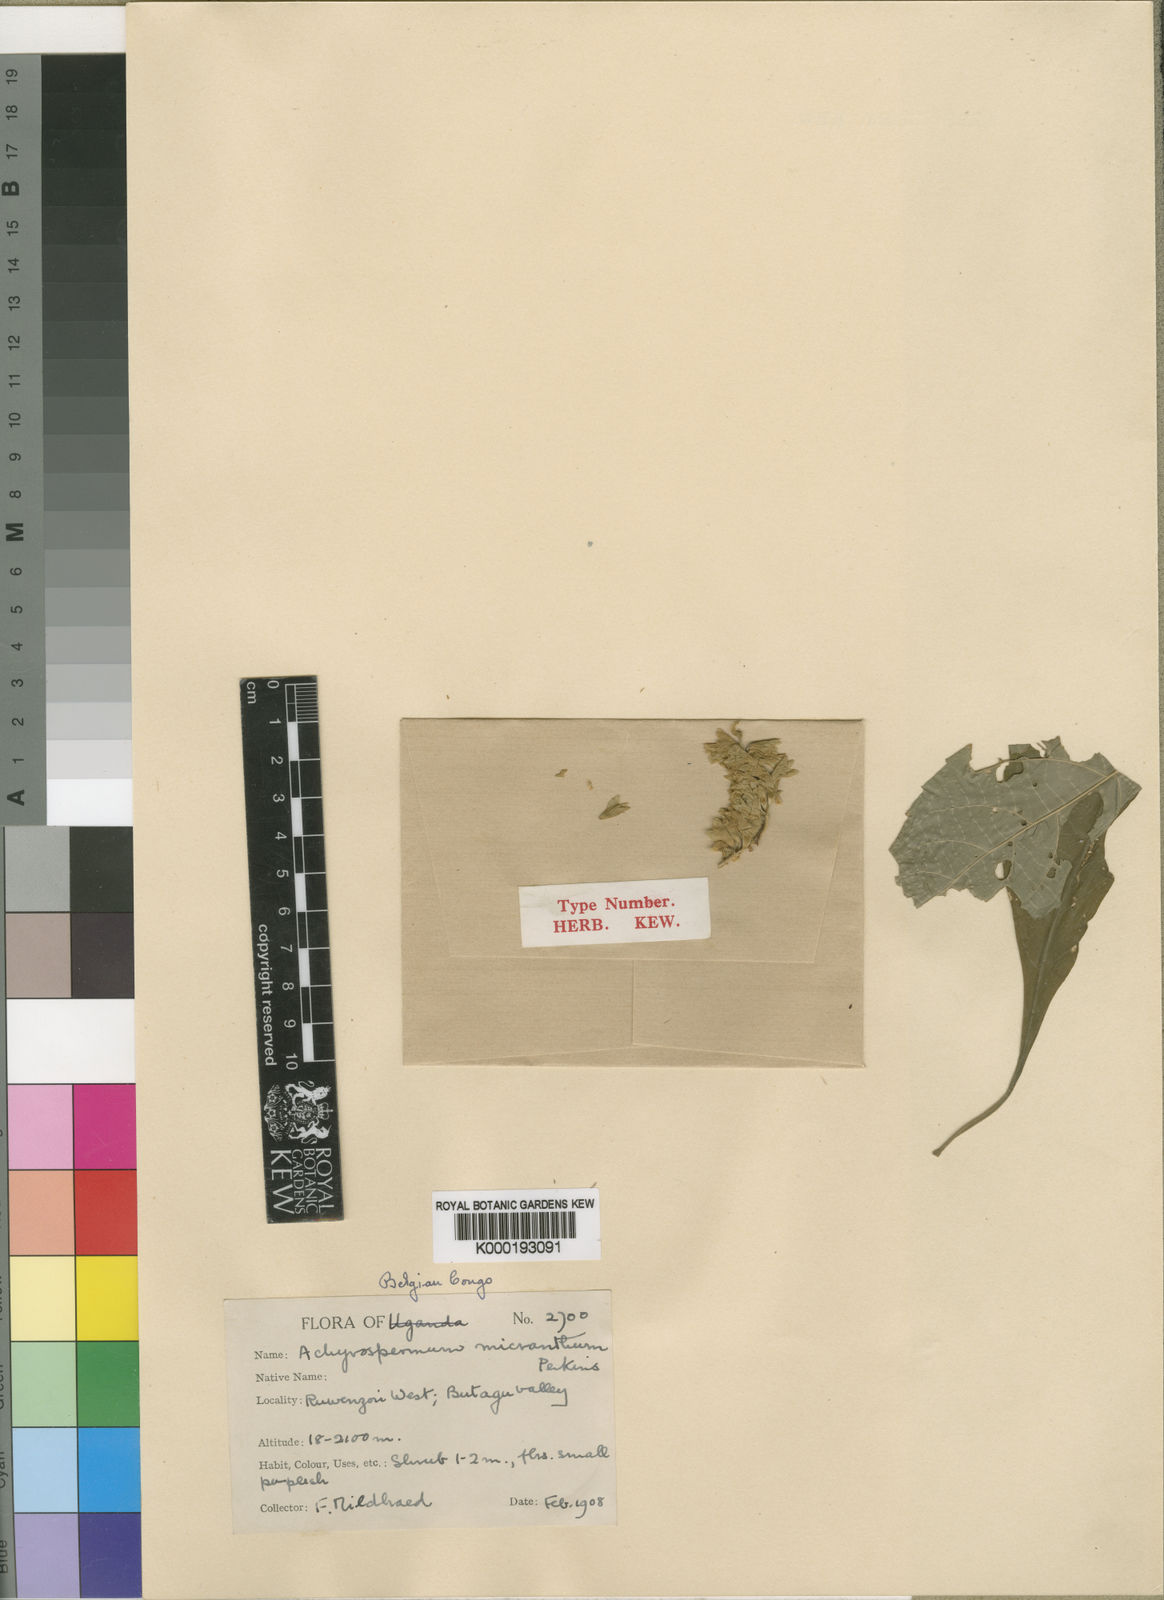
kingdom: Plantae
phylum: Tracheophyta
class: Magnoliopsida
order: Lamiales
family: Lamiaceae
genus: Achyrospermum
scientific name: Achyrospermum micranthum
